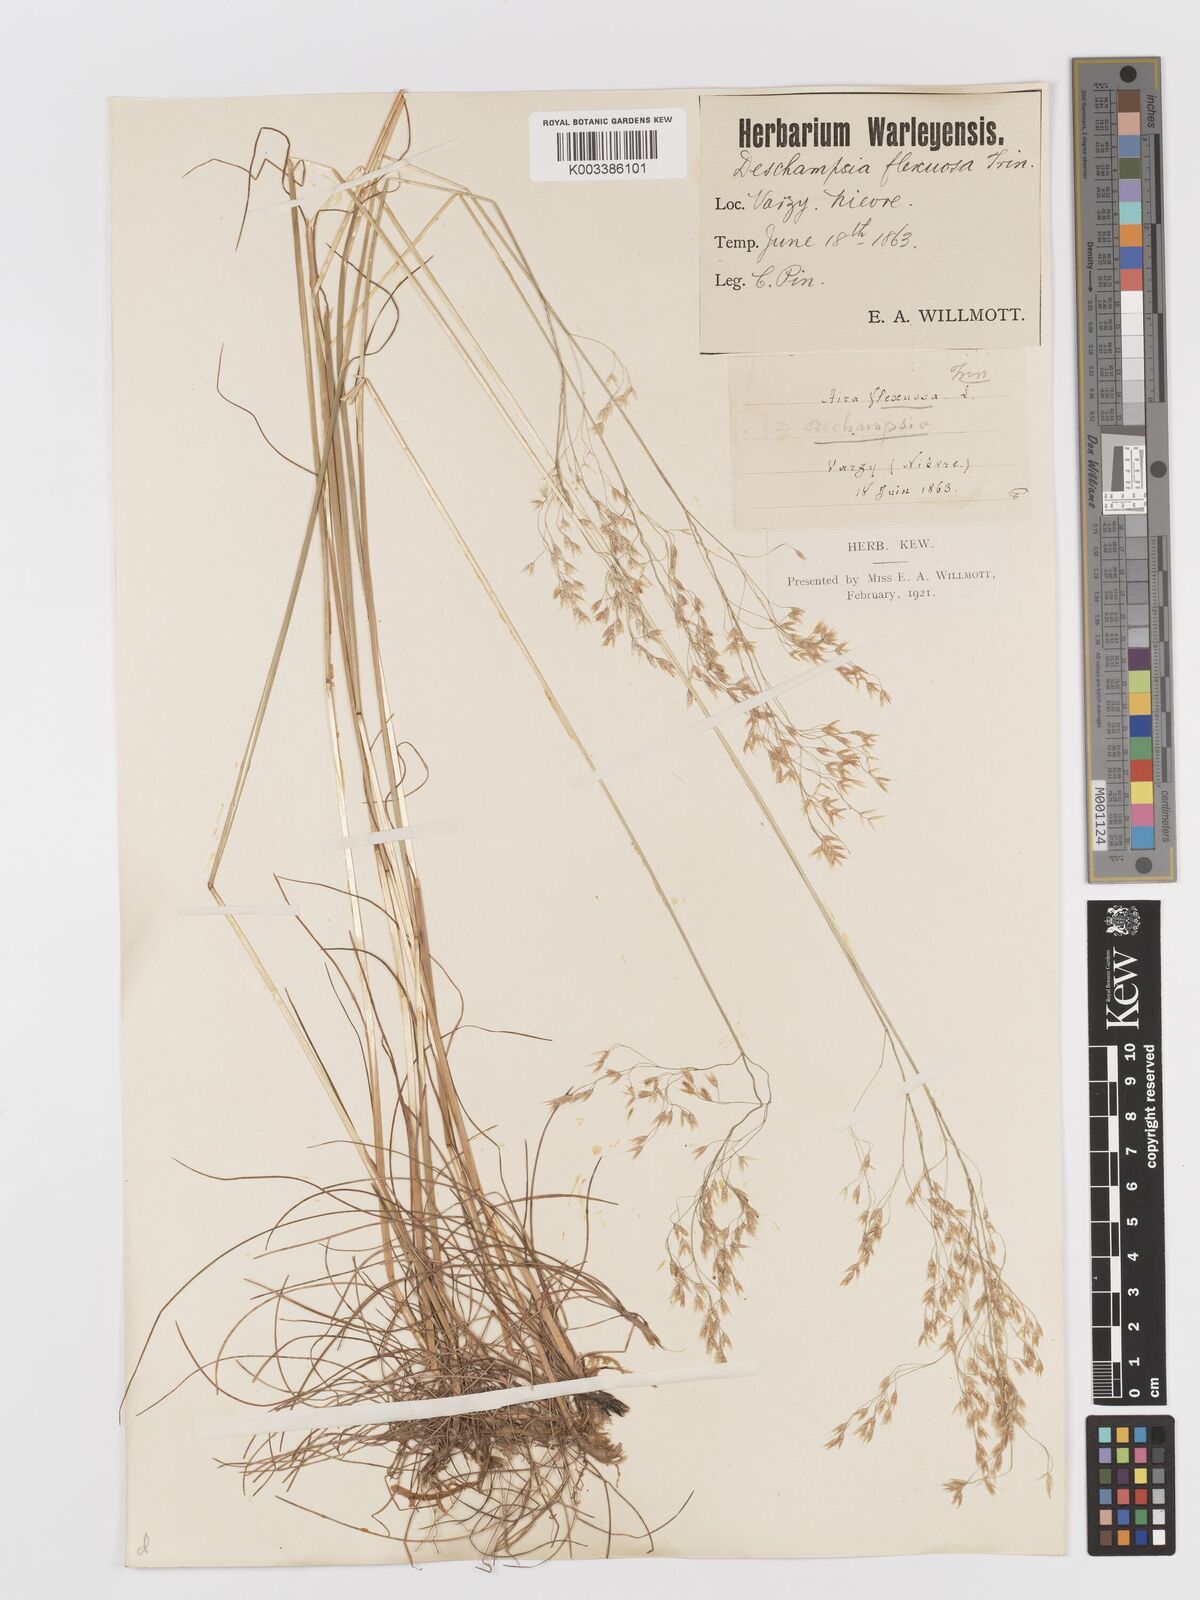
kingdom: Plantae
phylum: Tracheophyta
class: Liliopsida
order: Poales
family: Poaceae
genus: Avenella
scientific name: Avenella flexuosa
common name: Wavy hairgrass
